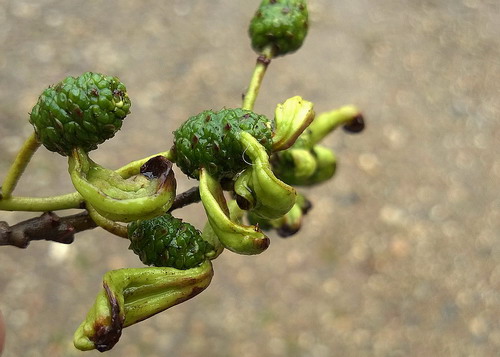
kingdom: Fungi
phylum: Ascomycota
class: Taphrinomycetes
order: Taphrinales
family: Taphrinaceae
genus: Taphrina
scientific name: Taphrina alni
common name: Alder tongue
